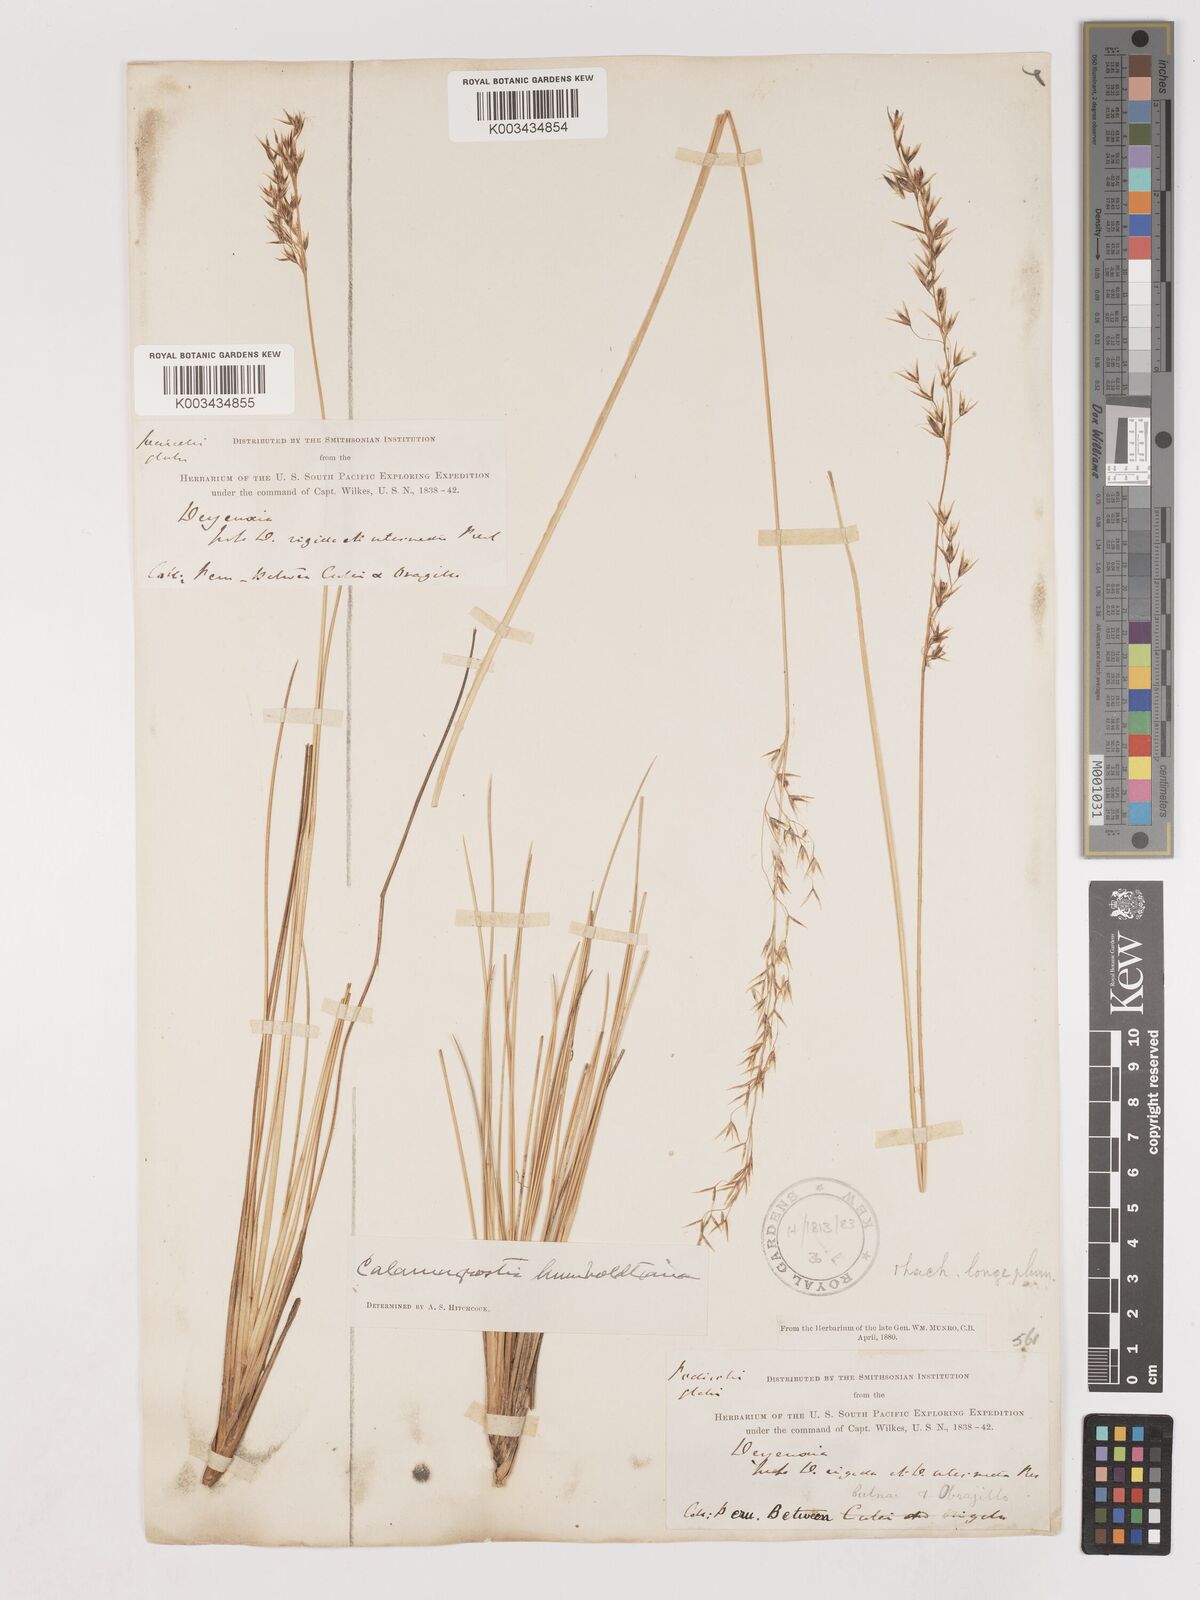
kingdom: Plantae
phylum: Tracheophyta
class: Liliopsida
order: Poales
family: Poaceae
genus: Cinnagrostis
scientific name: Cinnagrostis recta
